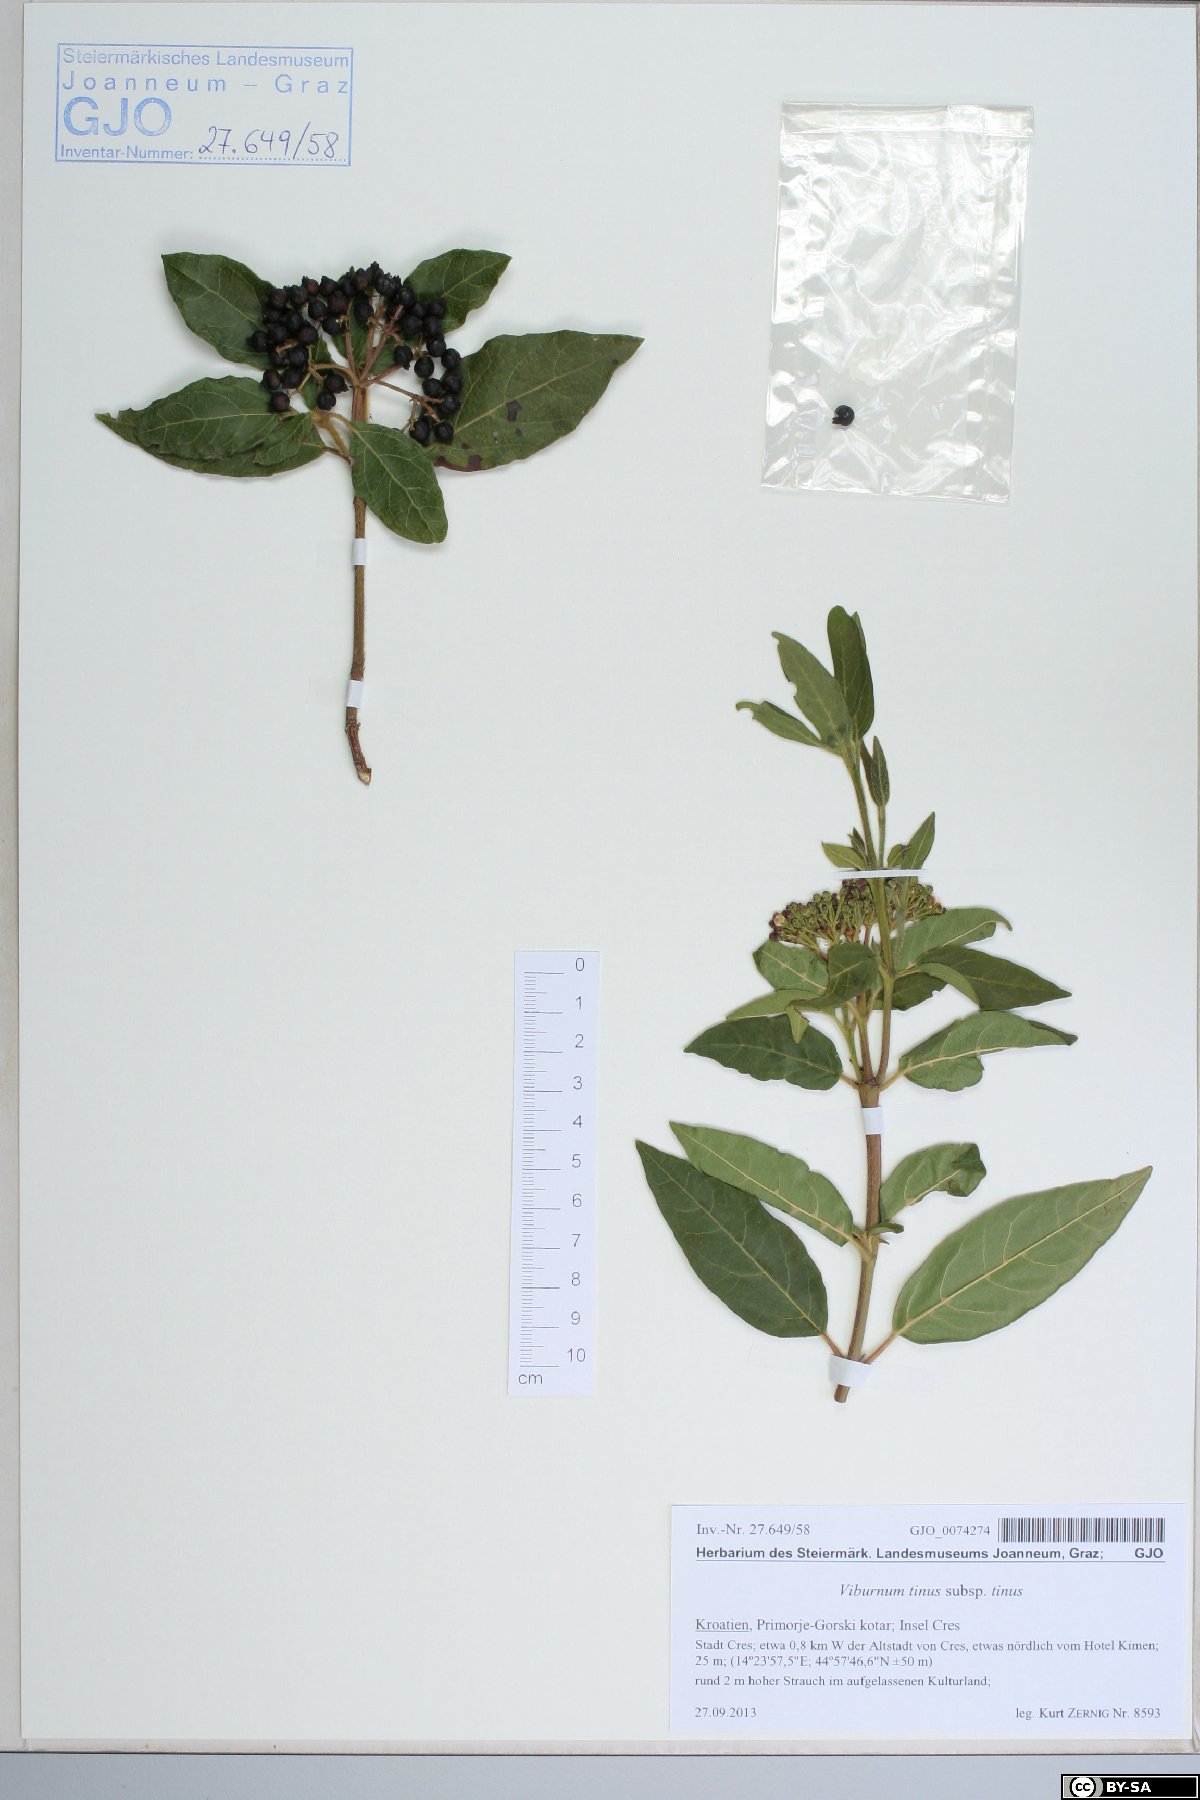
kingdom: Plantae
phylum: Tracheophyta
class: Magnoliopsida
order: Dipsacales
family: Viburnaceae
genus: Viburnum
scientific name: Viburnum tinus
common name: Laurustinus
